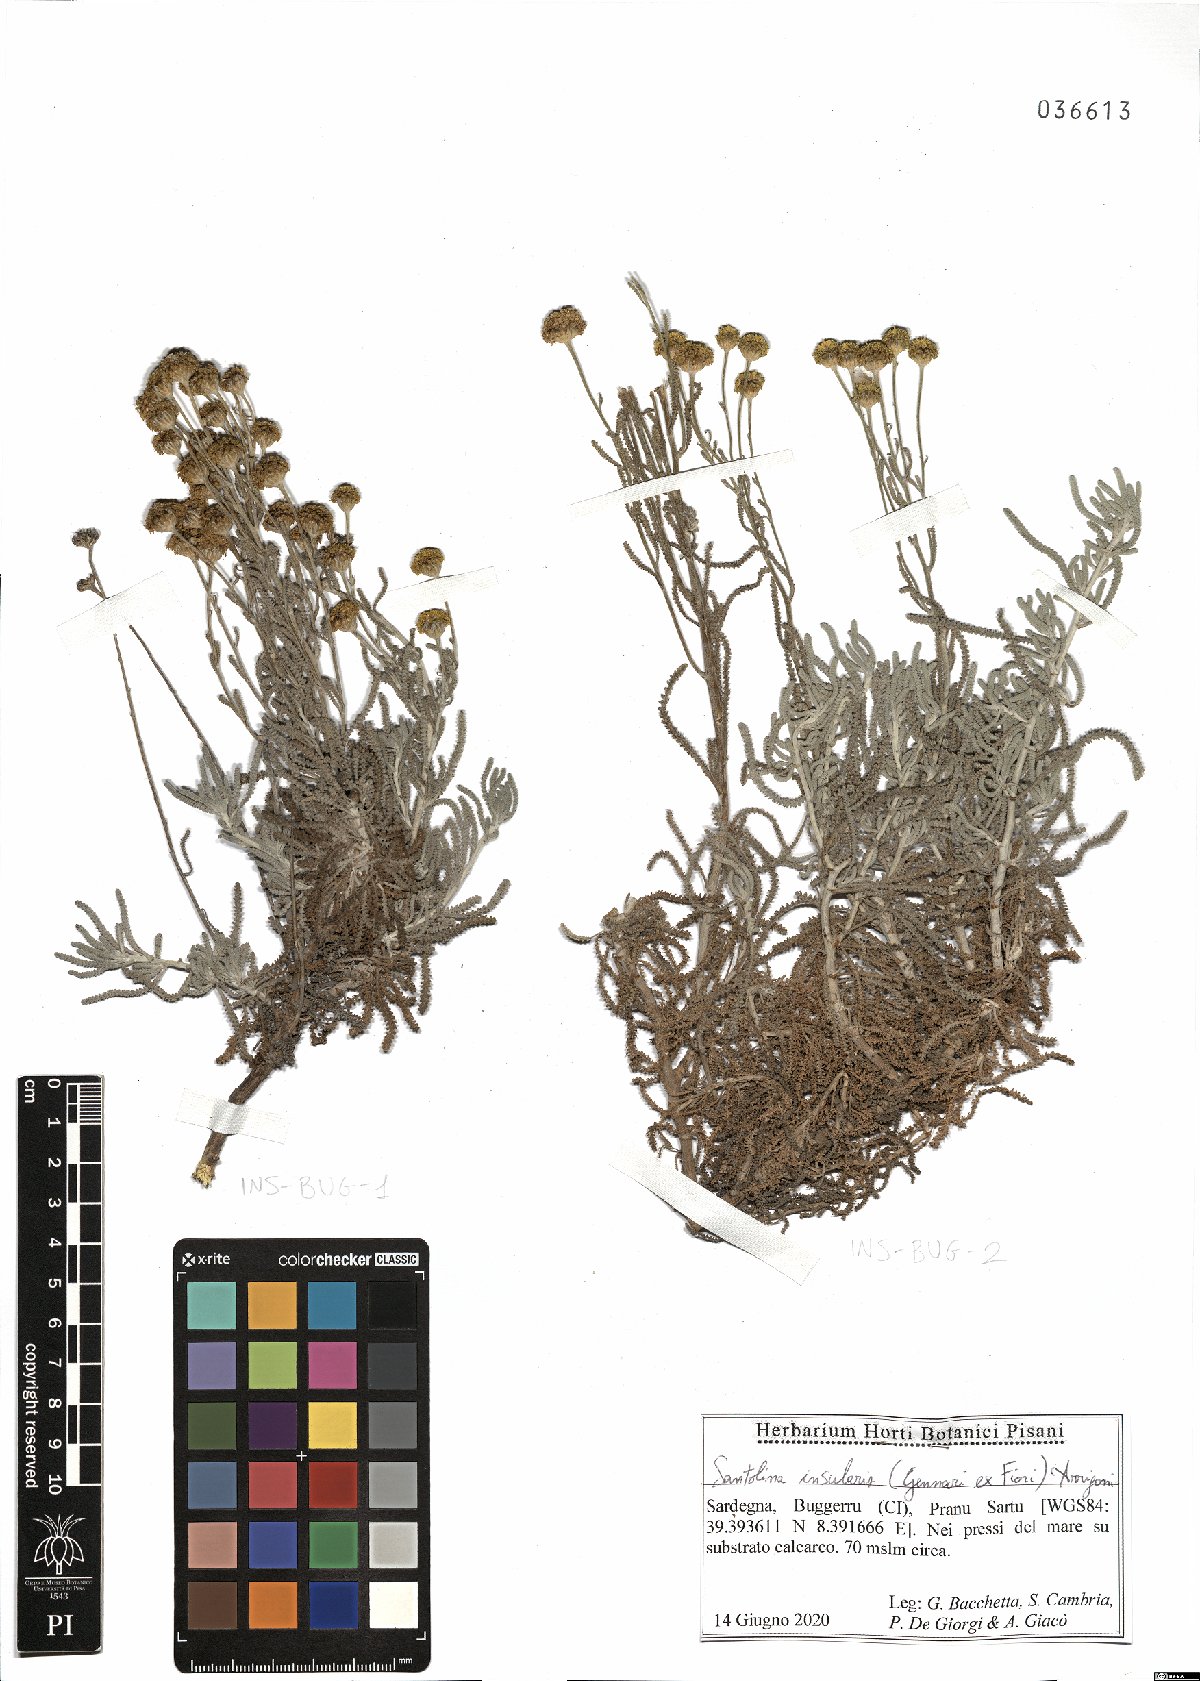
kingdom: Plantae
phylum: Tracheophyta
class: Magnoliopsida
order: Asterales
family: Asteraceae
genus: Santolina
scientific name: Santolina insularis
